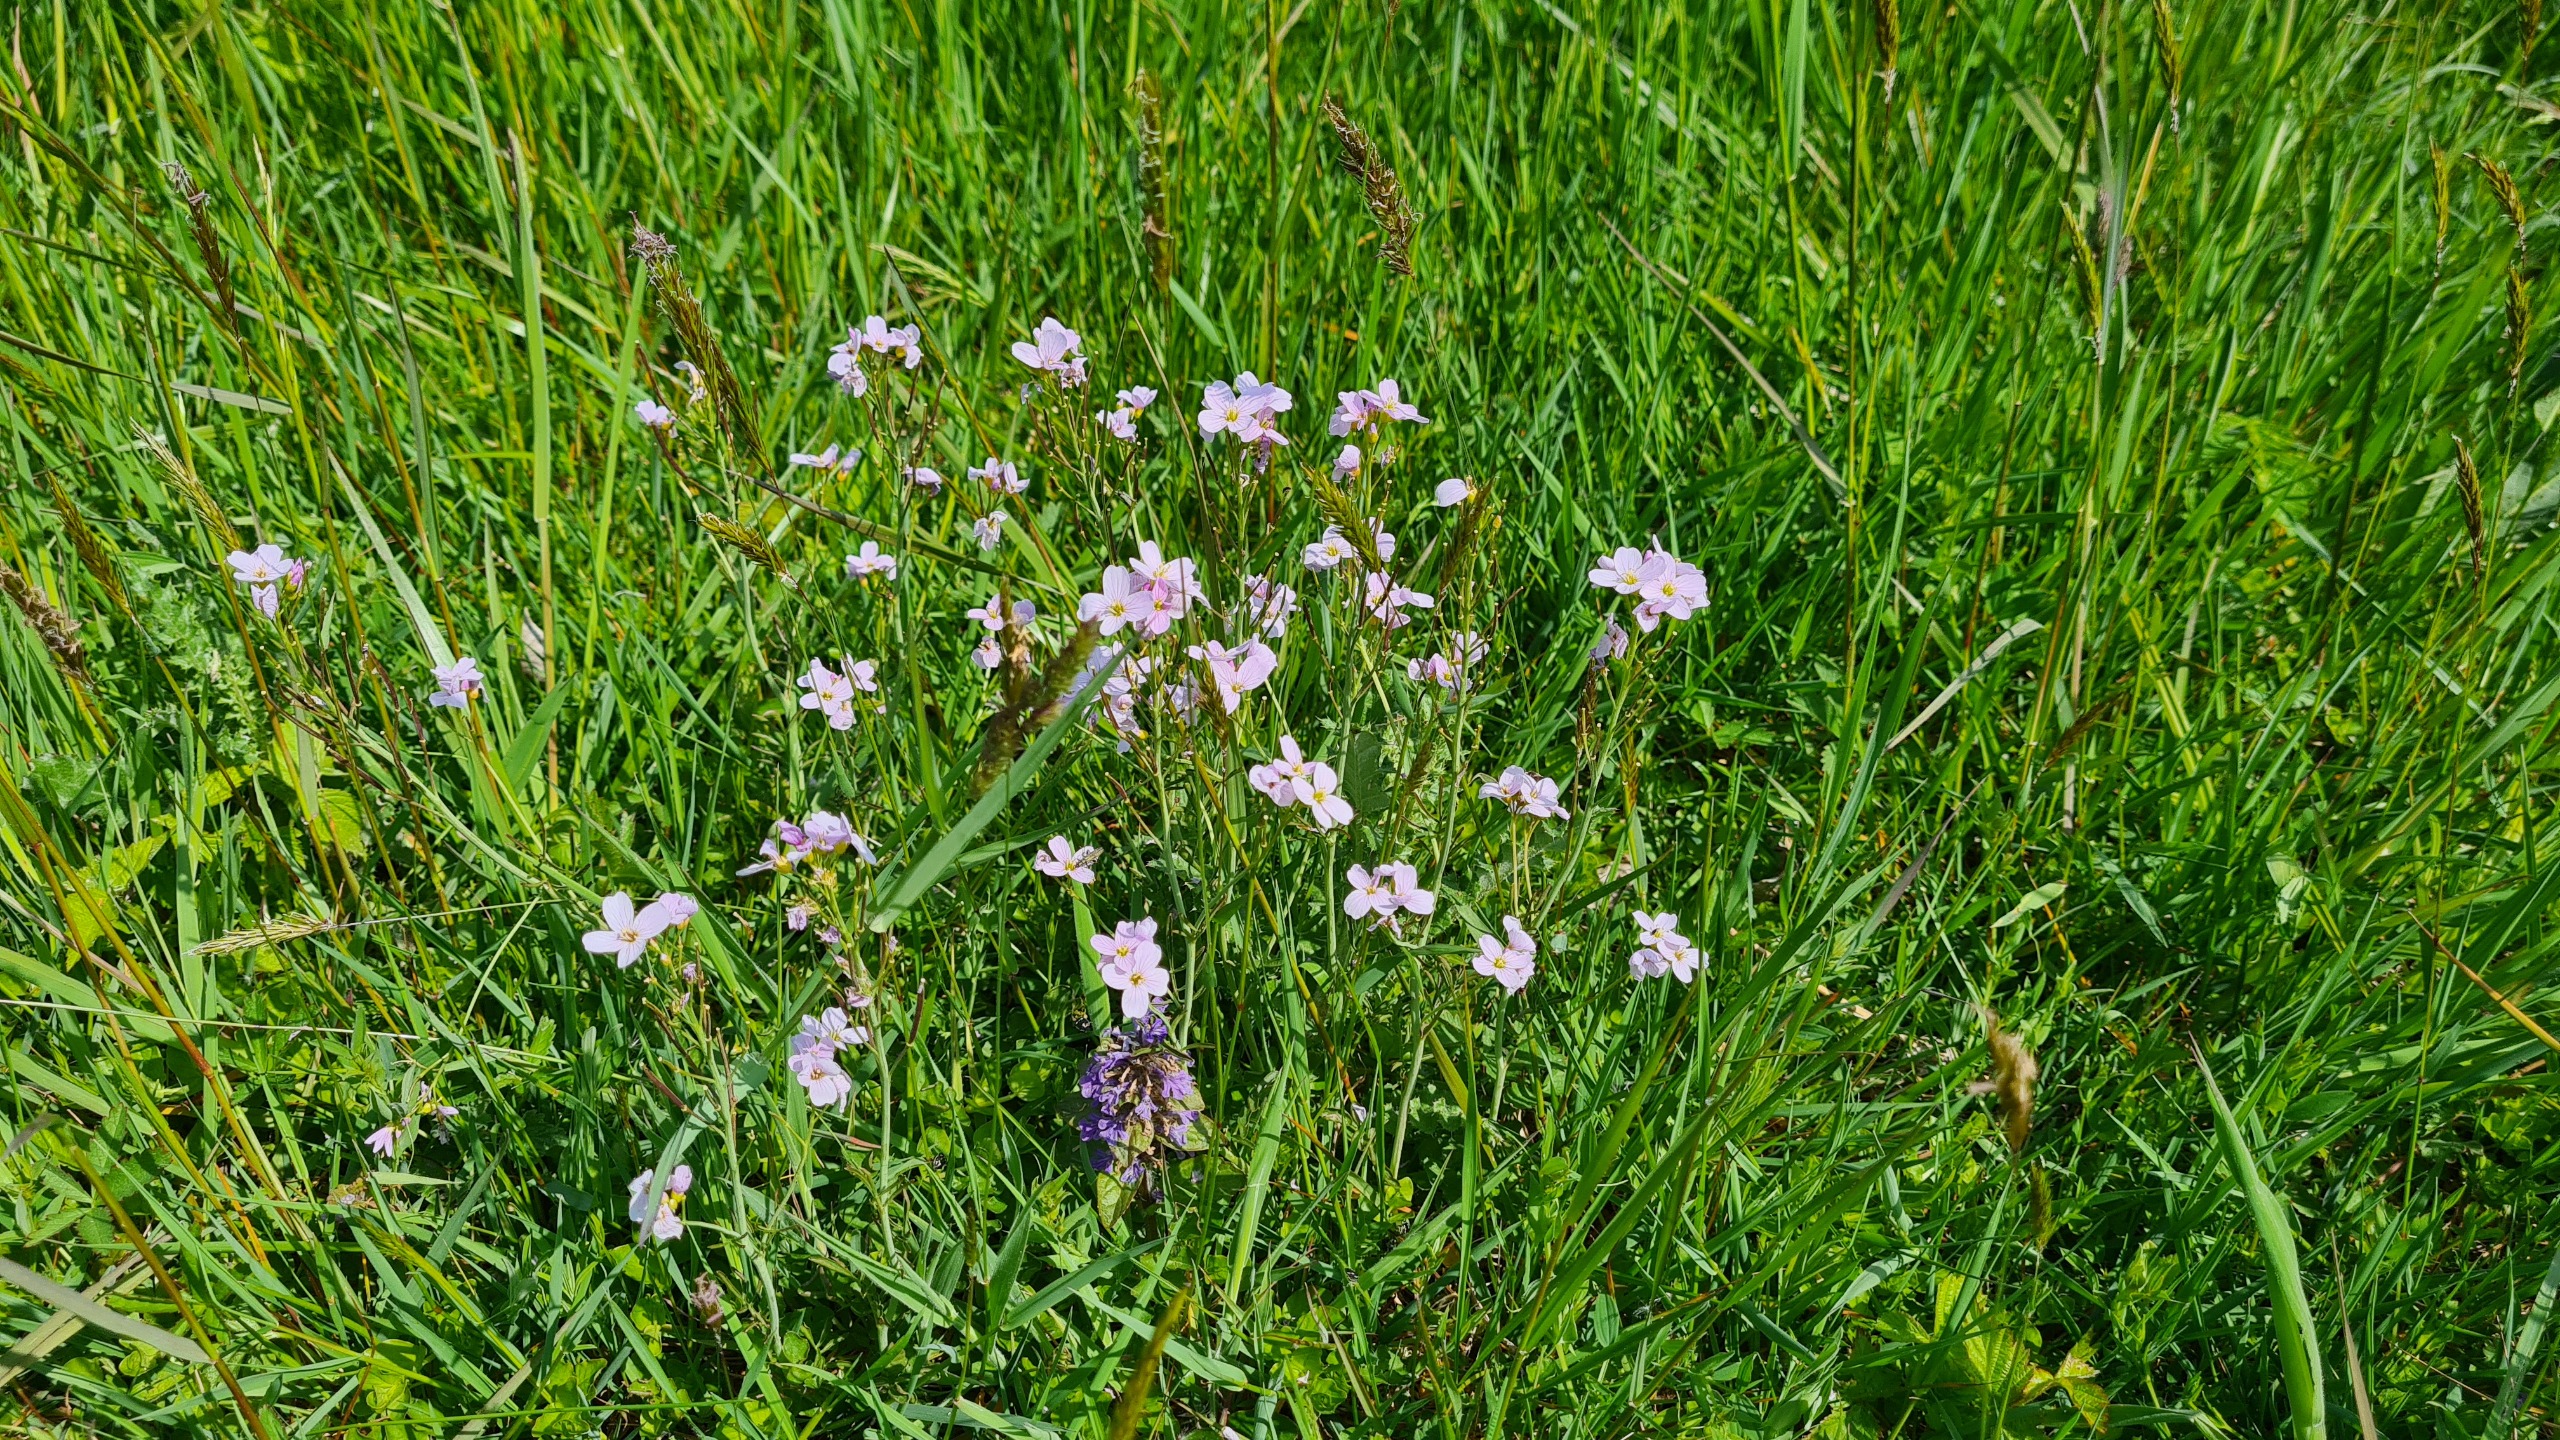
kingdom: Plantae
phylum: Tracheophyta
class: Magnoliopsida
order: Brassicales
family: Brassicaceae
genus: Cardamine
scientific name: Cardamine pratensis
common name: Engkarse
